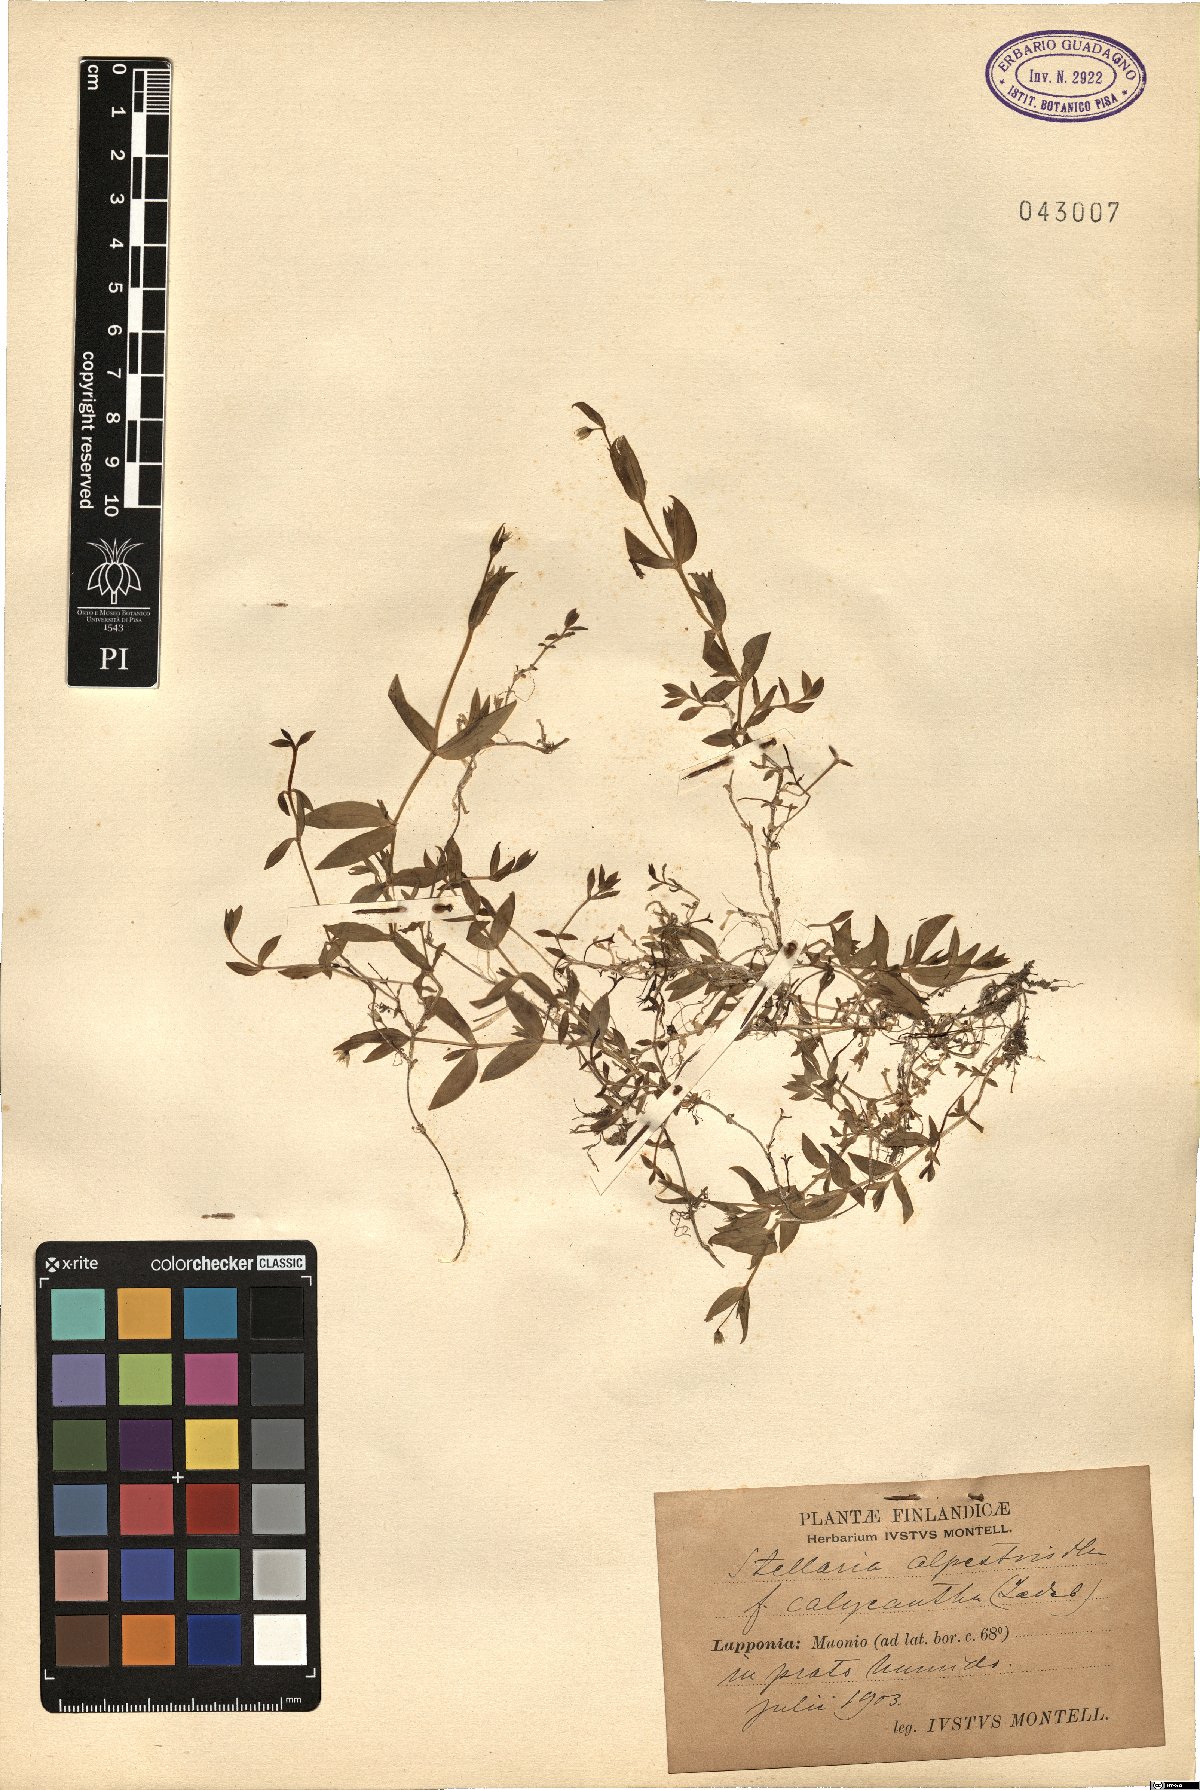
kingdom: Plantae
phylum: Tracheophyta
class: Magnoliopsida
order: Caryophyllales
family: Caryophyllaceae
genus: Stellaria
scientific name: Stellaria alpestris
